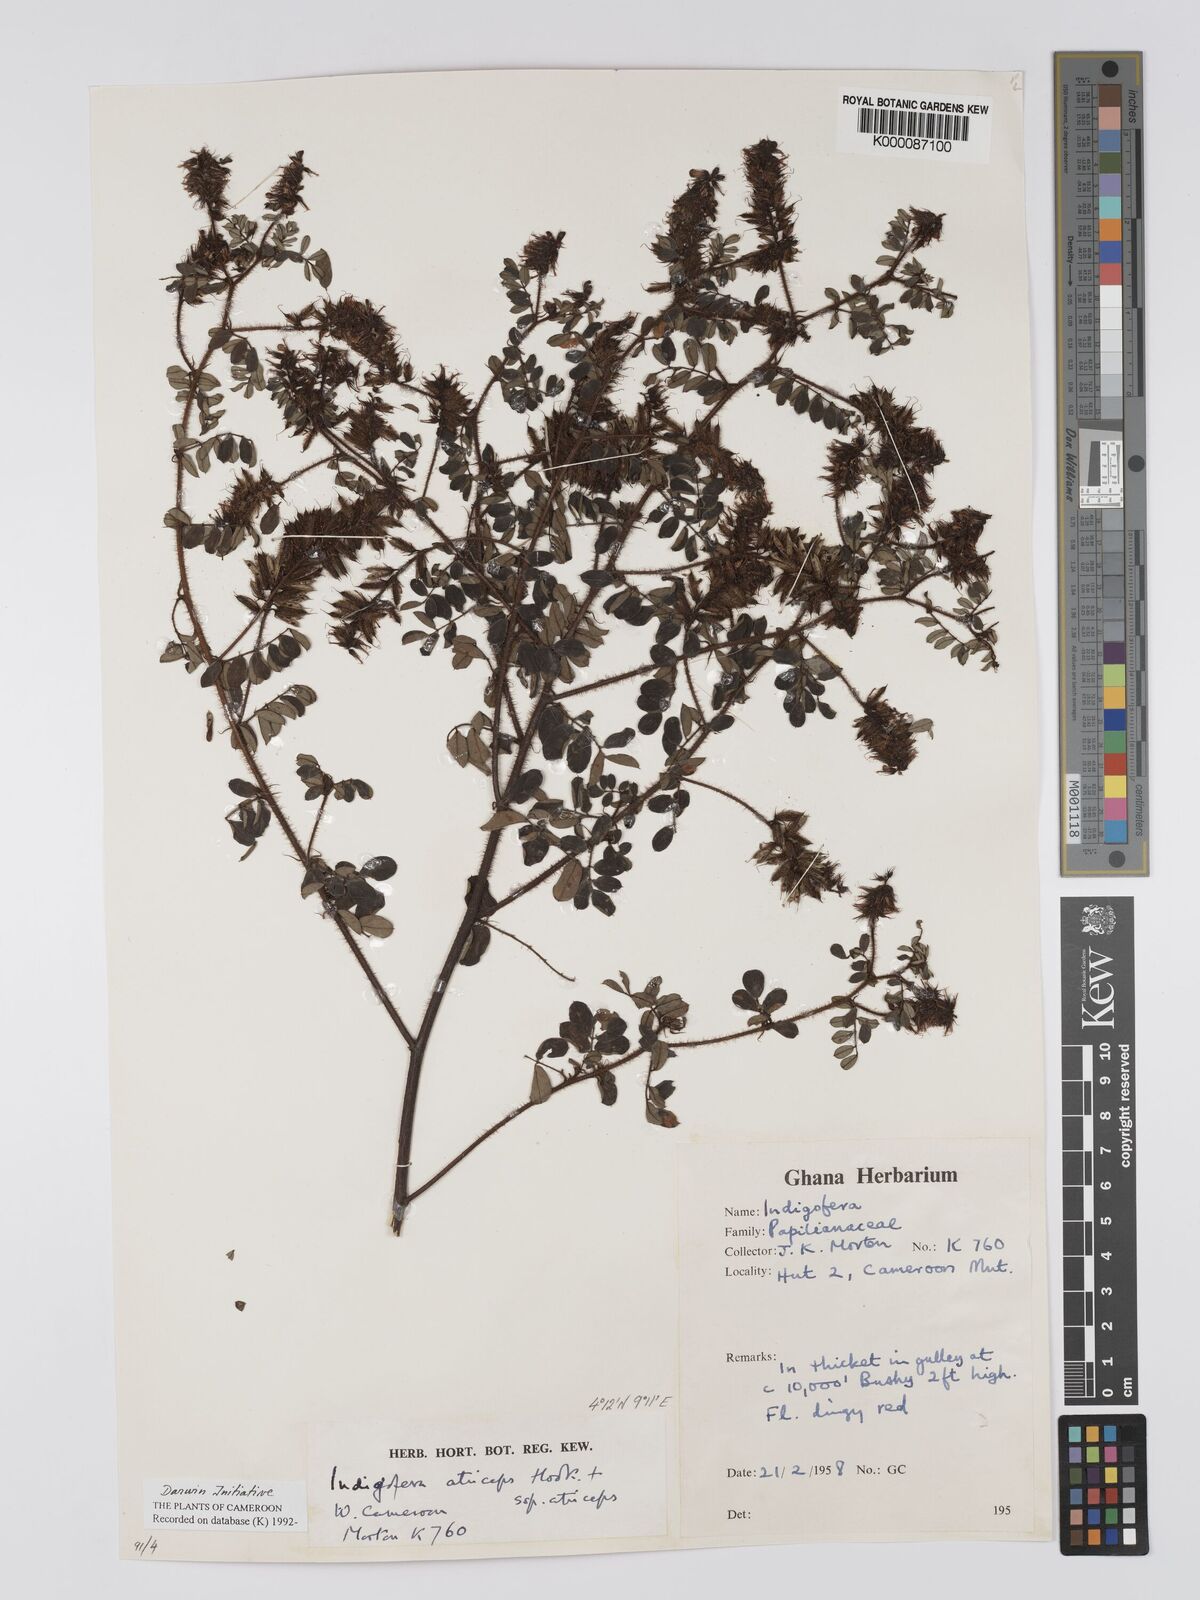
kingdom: Plantae
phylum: Tracheophyta
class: Magnoliopsida
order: Fabales
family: Fabaceae
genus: Indigofera
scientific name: Indigofera atriceps
